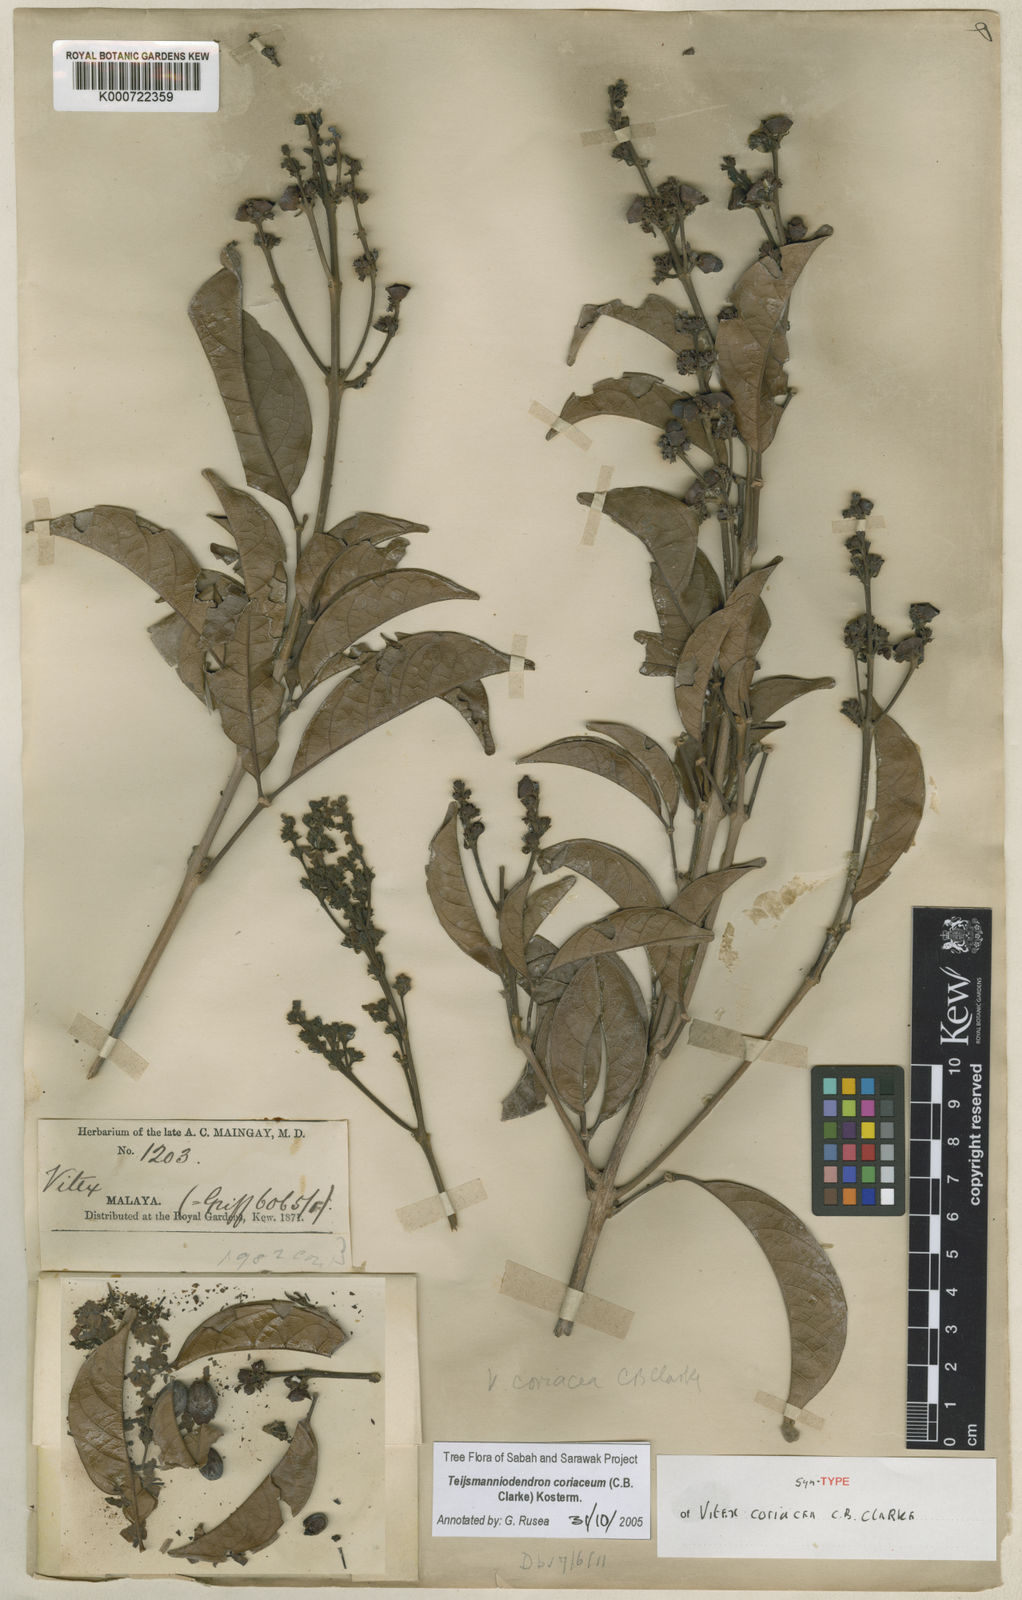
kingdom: Plantae
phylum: Tracheophyta
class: Magnoliopsida
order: Lamiales
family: Lamiaceae
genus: Teijsmanniodendron
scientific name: Teijsmanniodendron coriaceum
